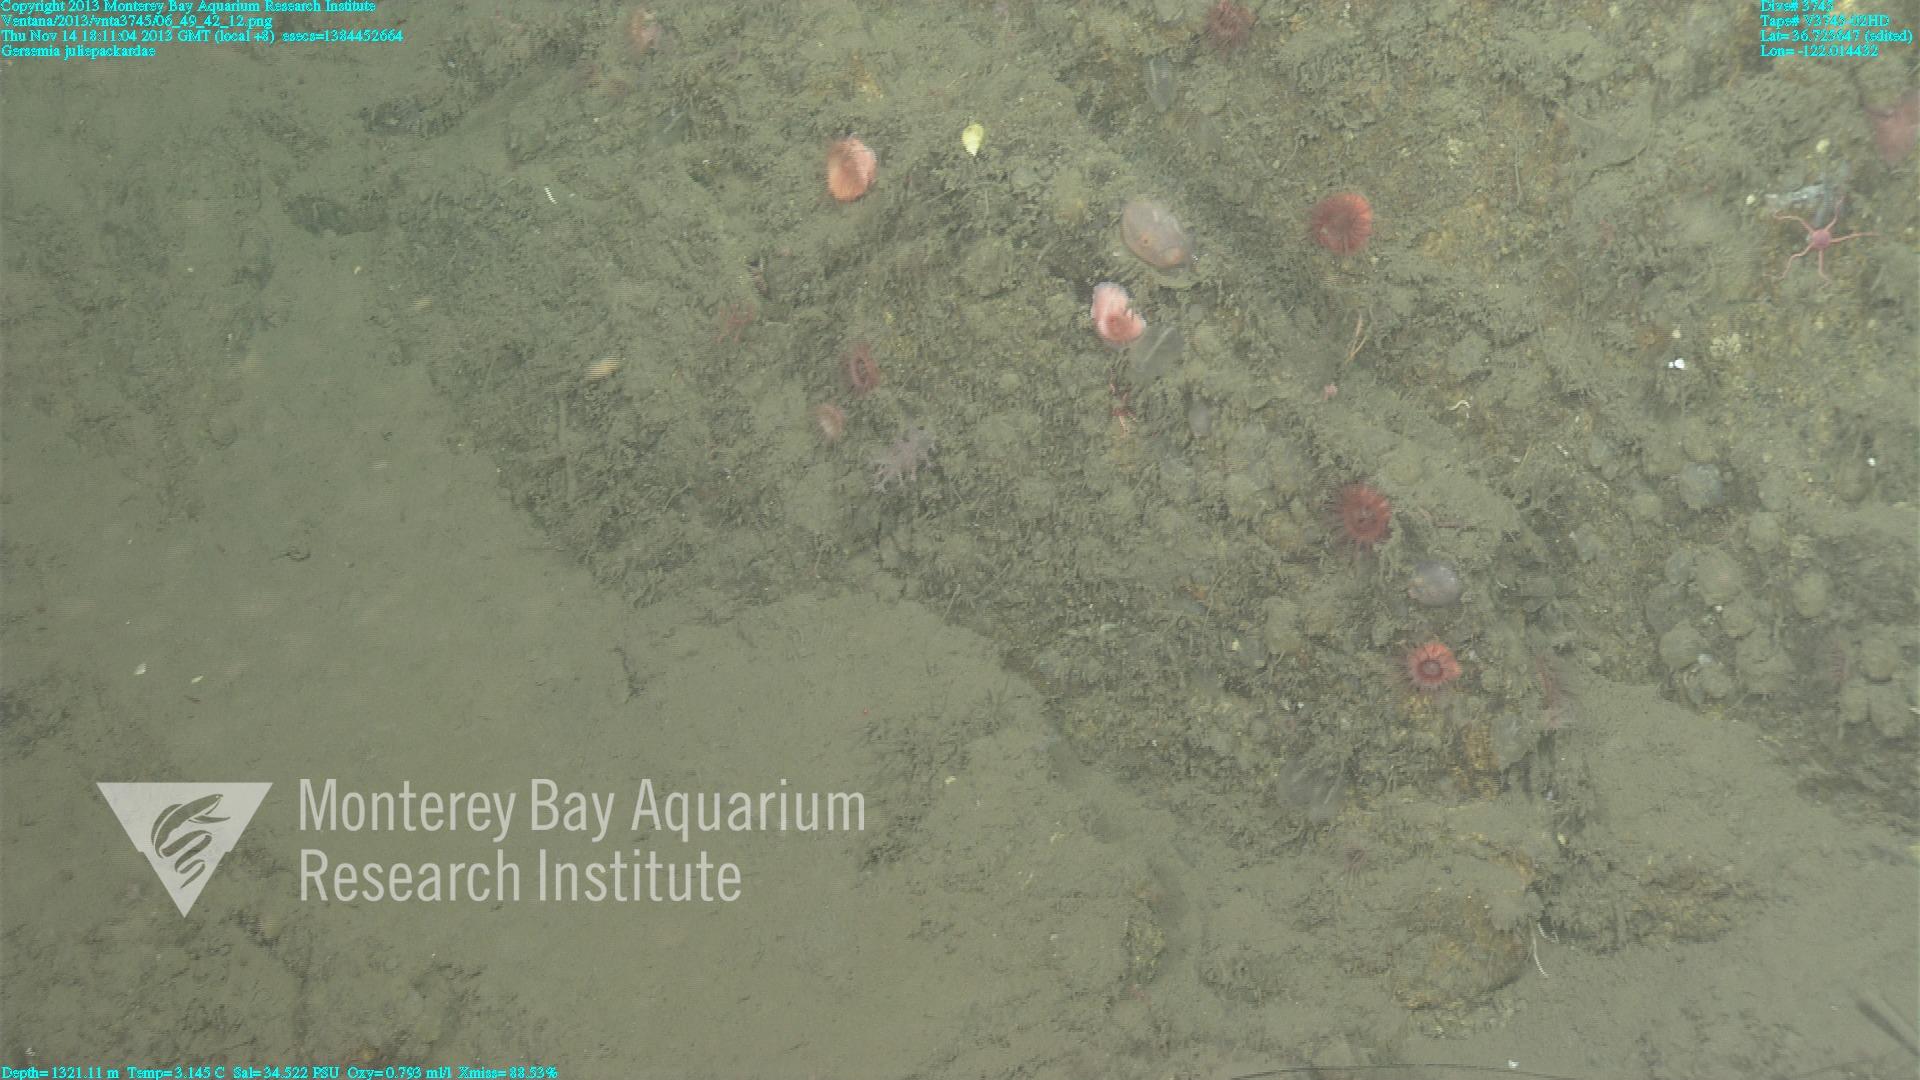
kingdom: Animalia
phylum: Cnidaria
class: Anthozoa
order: Malacalcyonacea
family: Alcyoniidae
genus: Gersemia
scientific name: Gersemia juliepackardae
